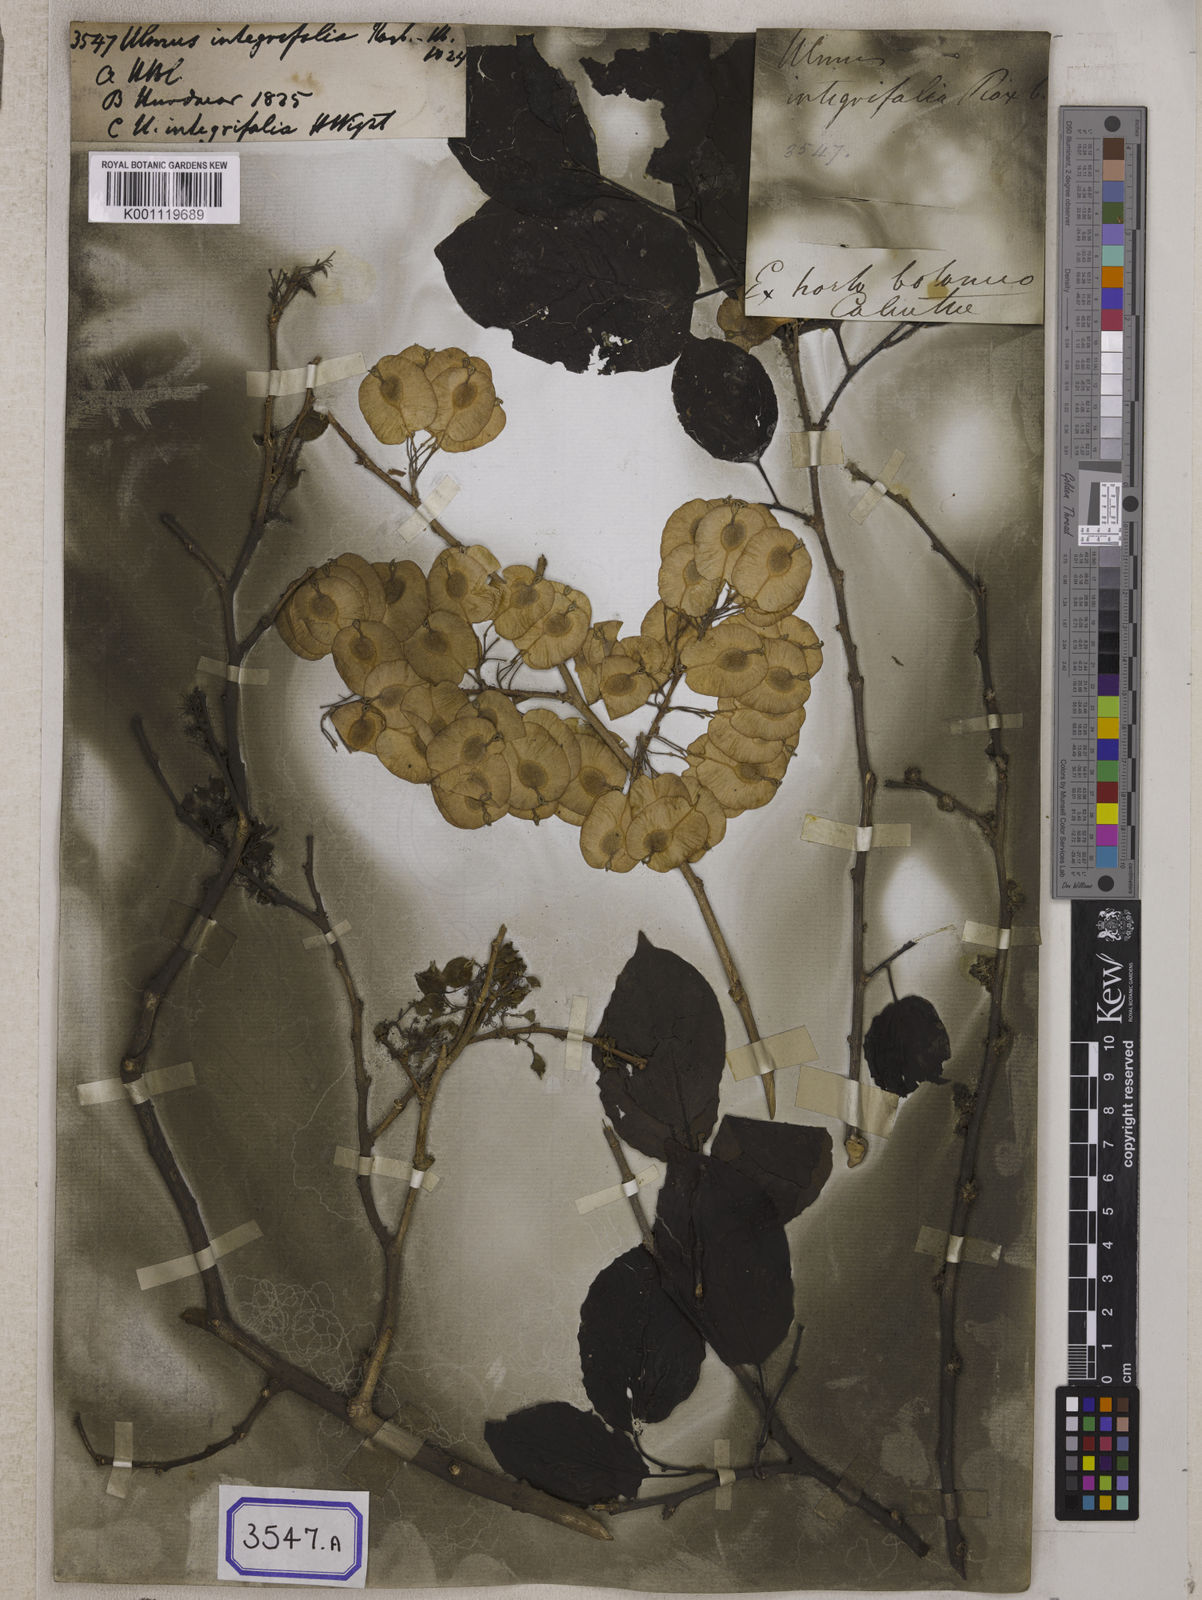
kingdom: Plantae
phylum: Tracheophyta
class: Magnoliopsida
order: Rosales
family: Ulmaceae
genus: Holoptelea
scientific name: Holoptelea integrifolia
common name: Indian-elm
